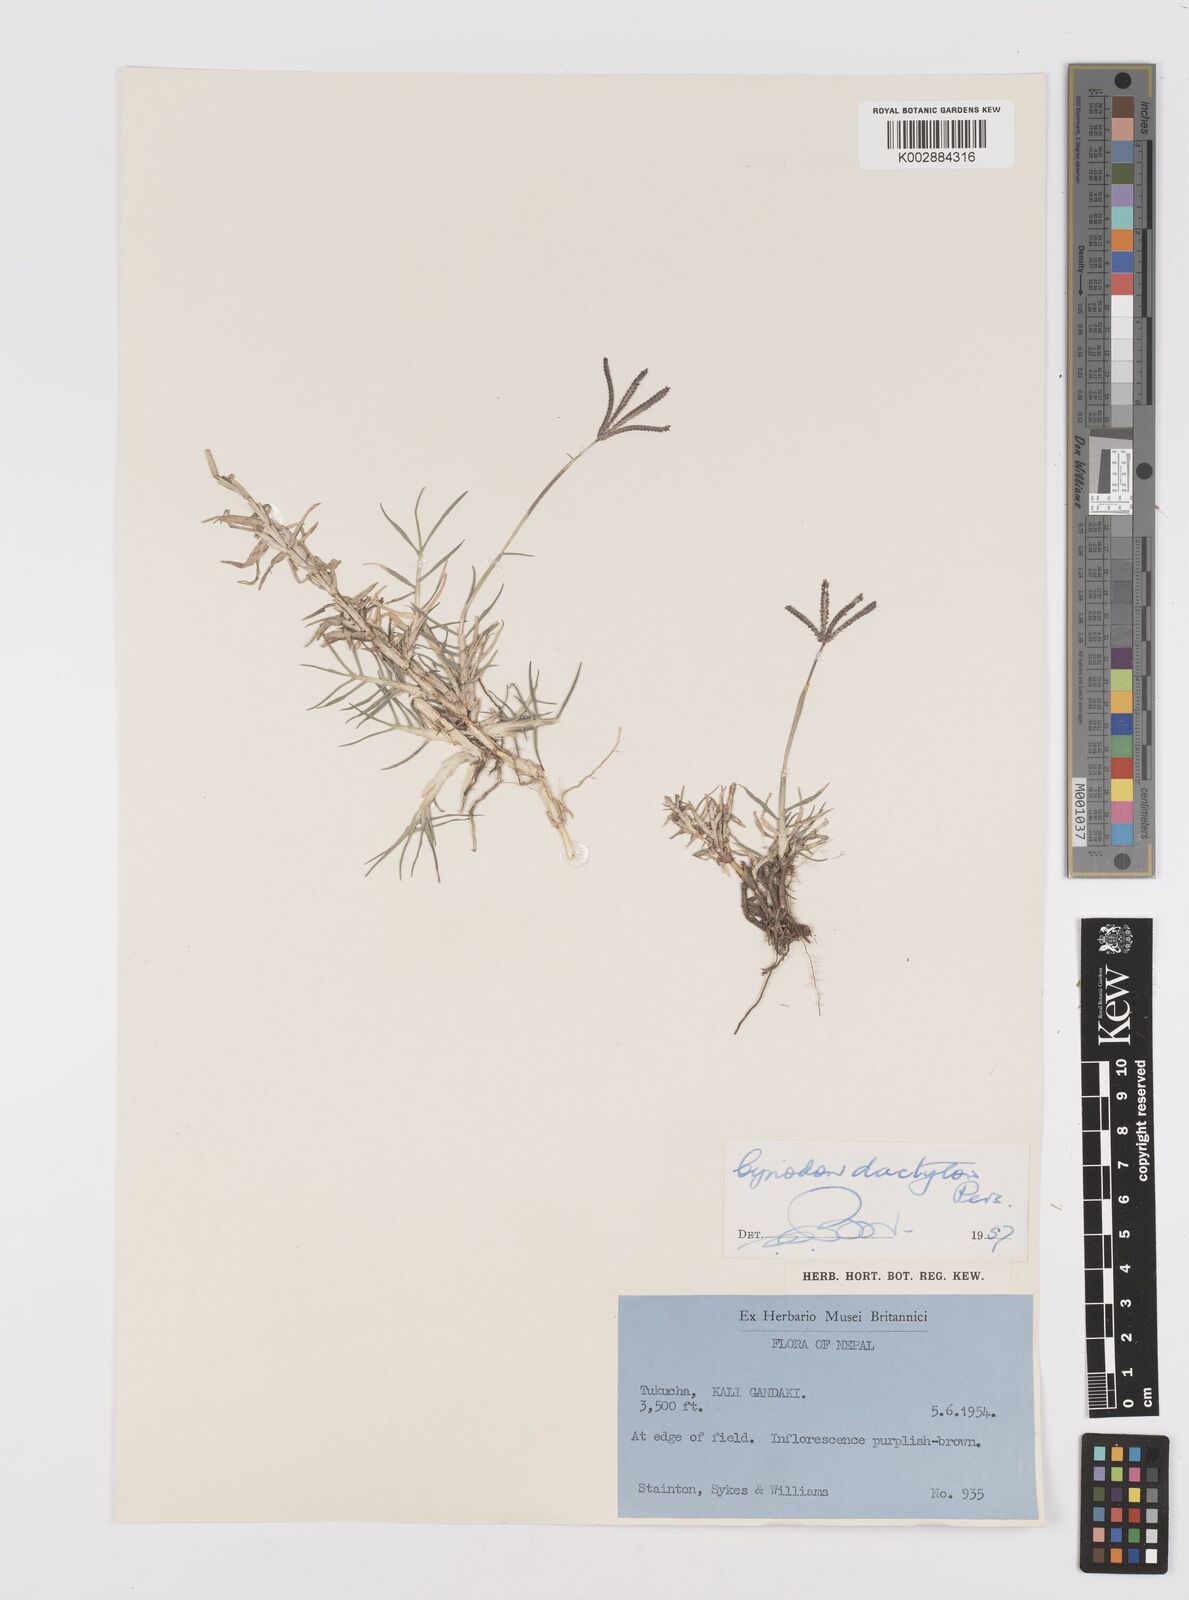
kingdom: Plantae
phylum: Tracheophyta
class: Liliopsida
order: Poales
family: Poaceae
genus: Cynodon
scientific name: Cynodon dactylon
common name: Bermuda grass
